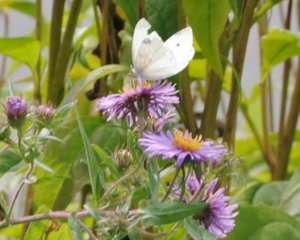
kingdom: Animalia
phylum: Arthropoda
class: Insecta
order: Lepidoptera
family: Pieridae
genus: Pieris
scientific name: Pieris rapae
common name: Cabbage White
